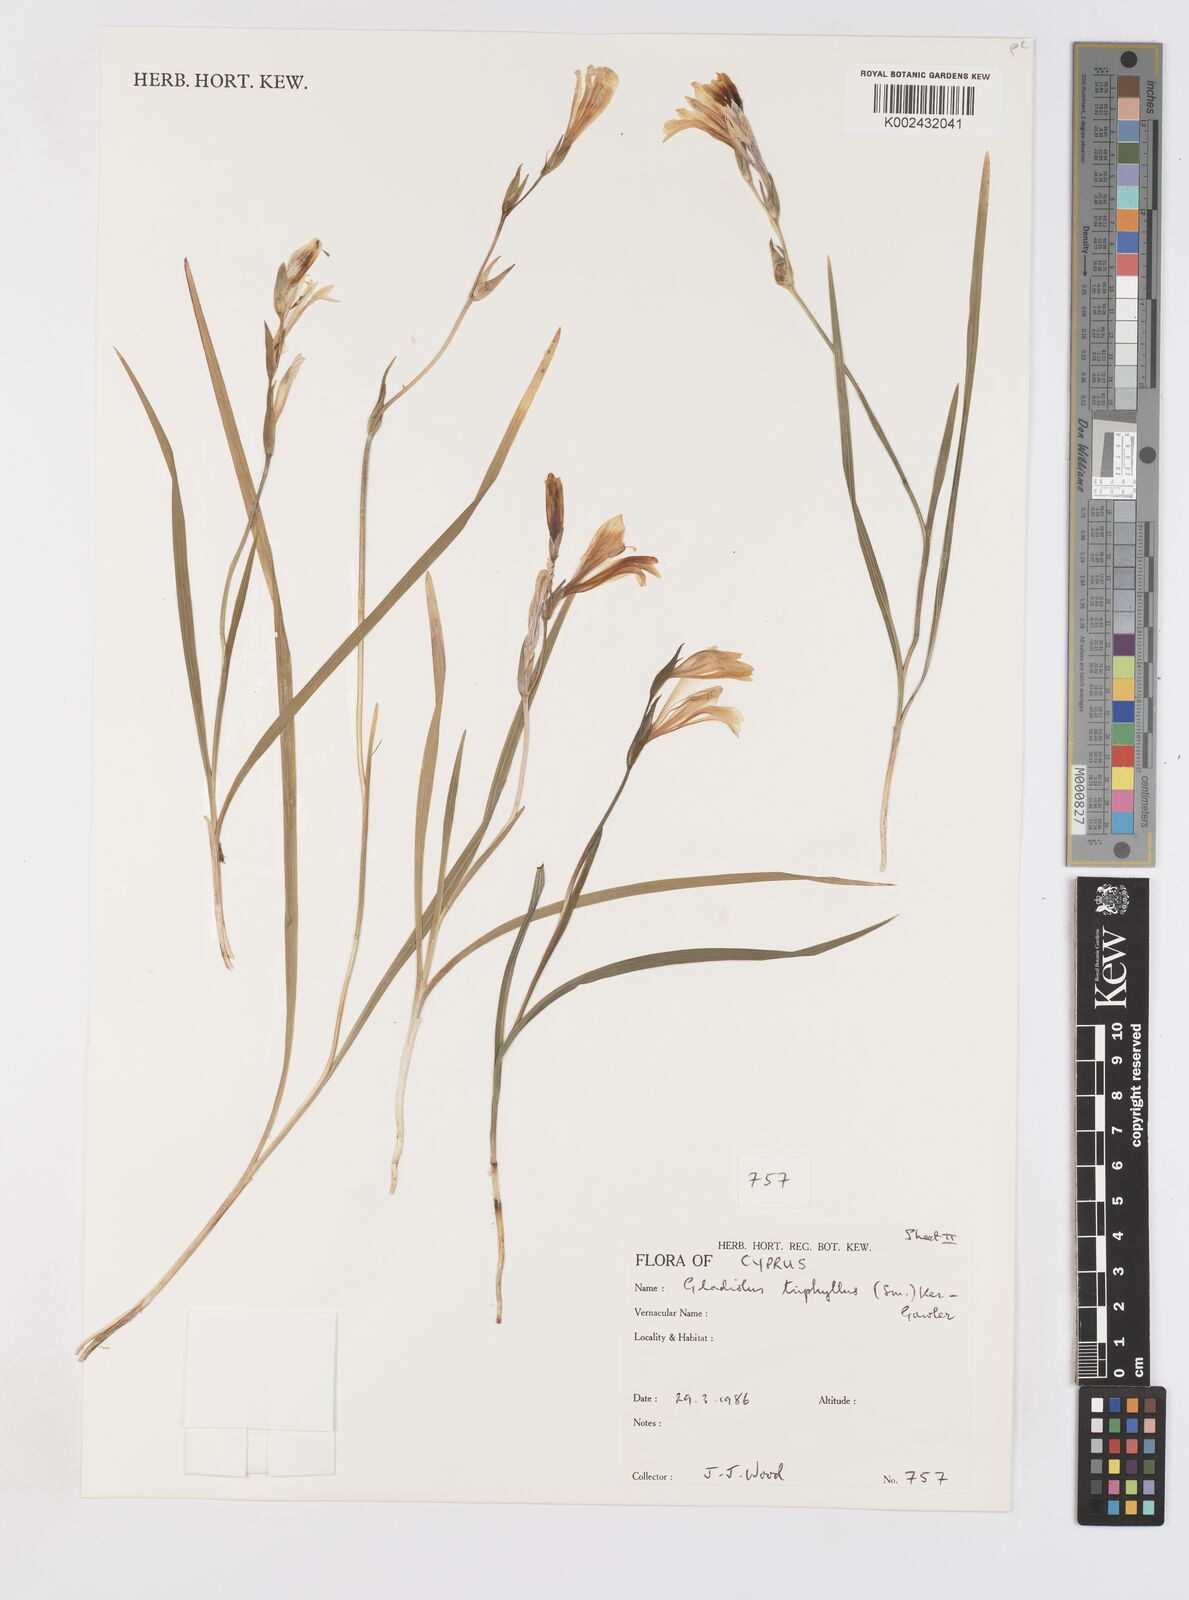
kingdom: Plantae
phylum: Tracheophyta
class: Liliopsida
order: Asparagales
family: Iridaceae
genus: Gladiolus
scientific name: Gladiolus triphyllus
